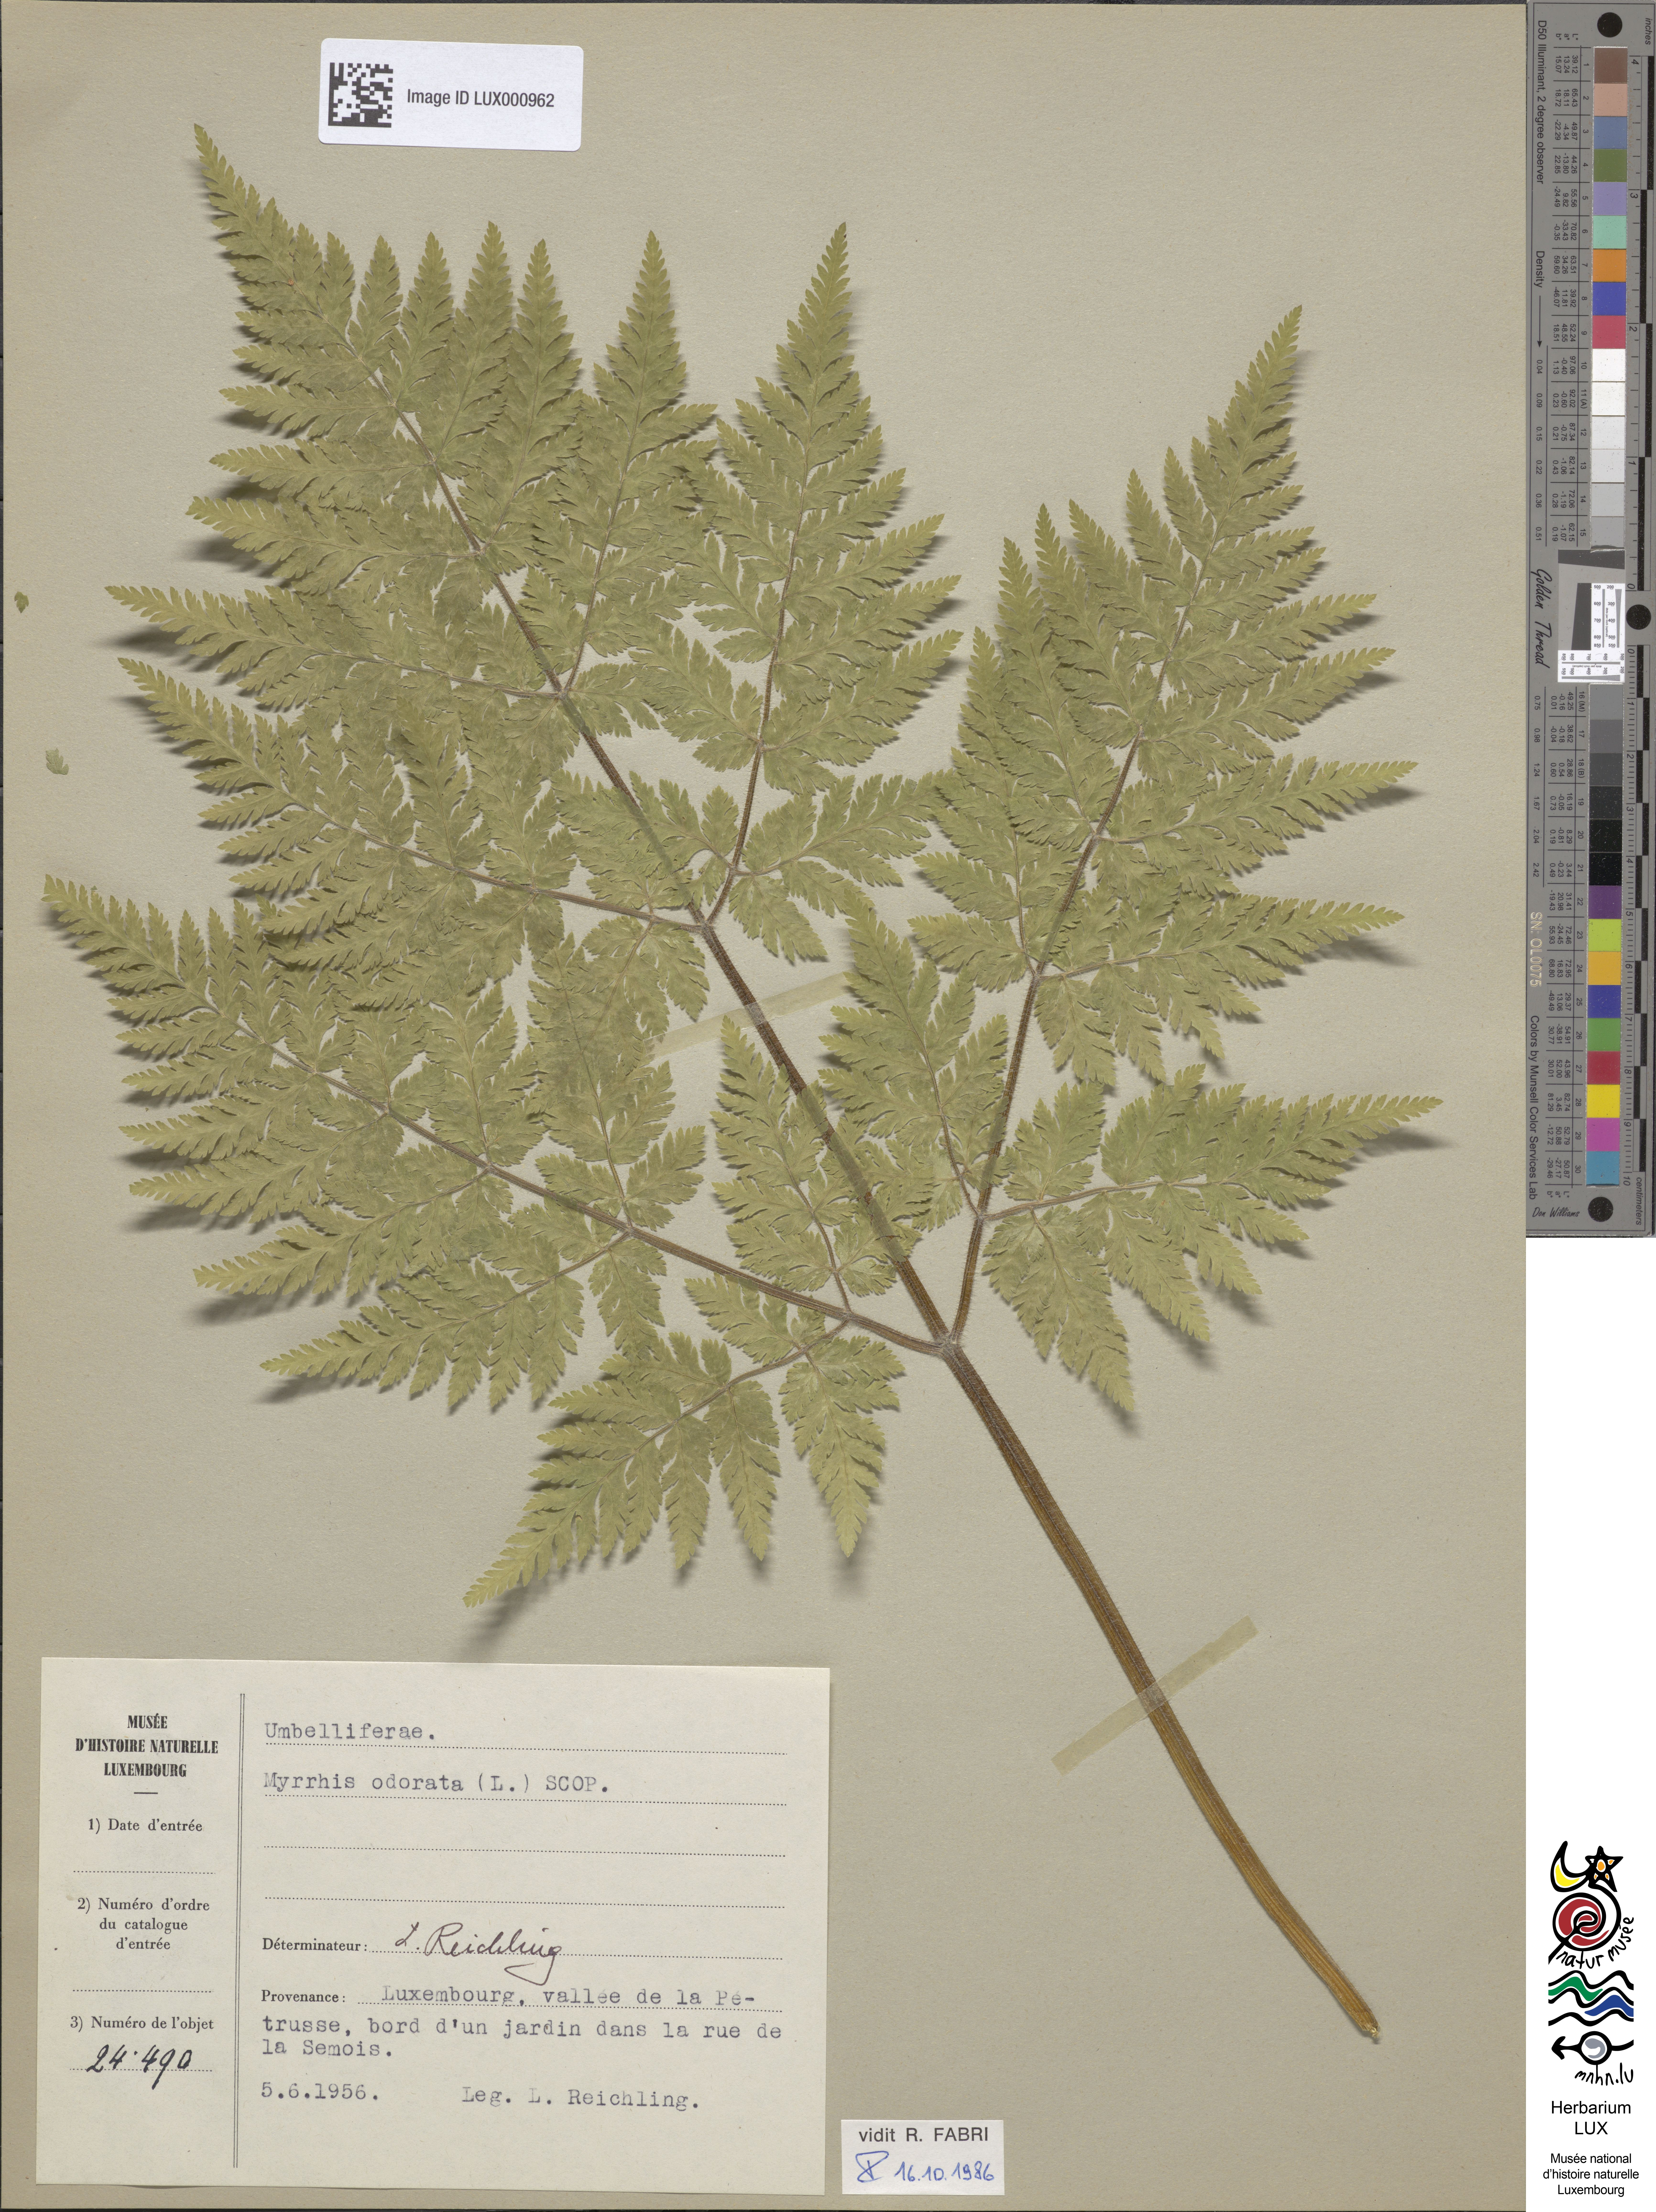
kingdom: Plantae
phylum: Tracheophyta
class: Magnoliopsida
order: Apiales
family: Apiaceae
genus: Myrrhis
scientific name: Myrrhis odorata
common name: Sweet cicely
